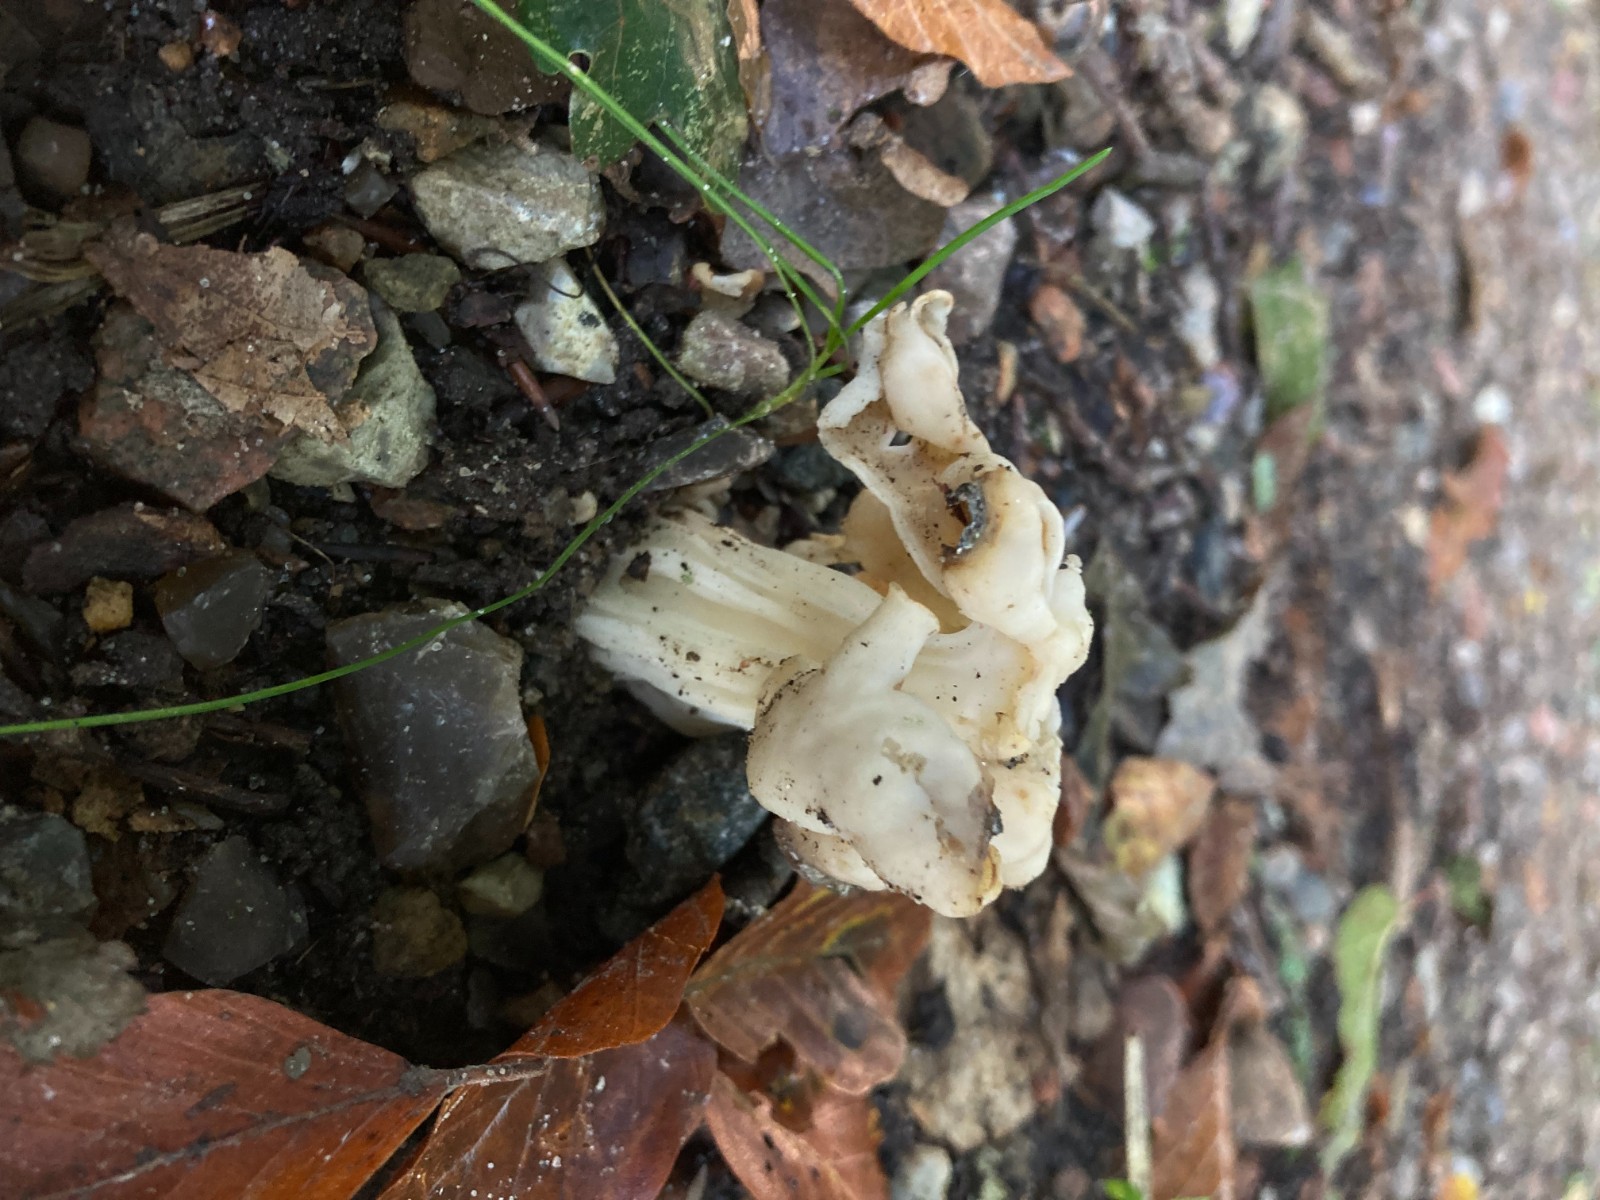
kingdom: Fungi
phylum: Ascomycota
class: Pezizomycetes
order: Pezizales
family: Helvellaceae
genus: Helvella
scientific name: Helvella crispa
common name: kruset foldhat
